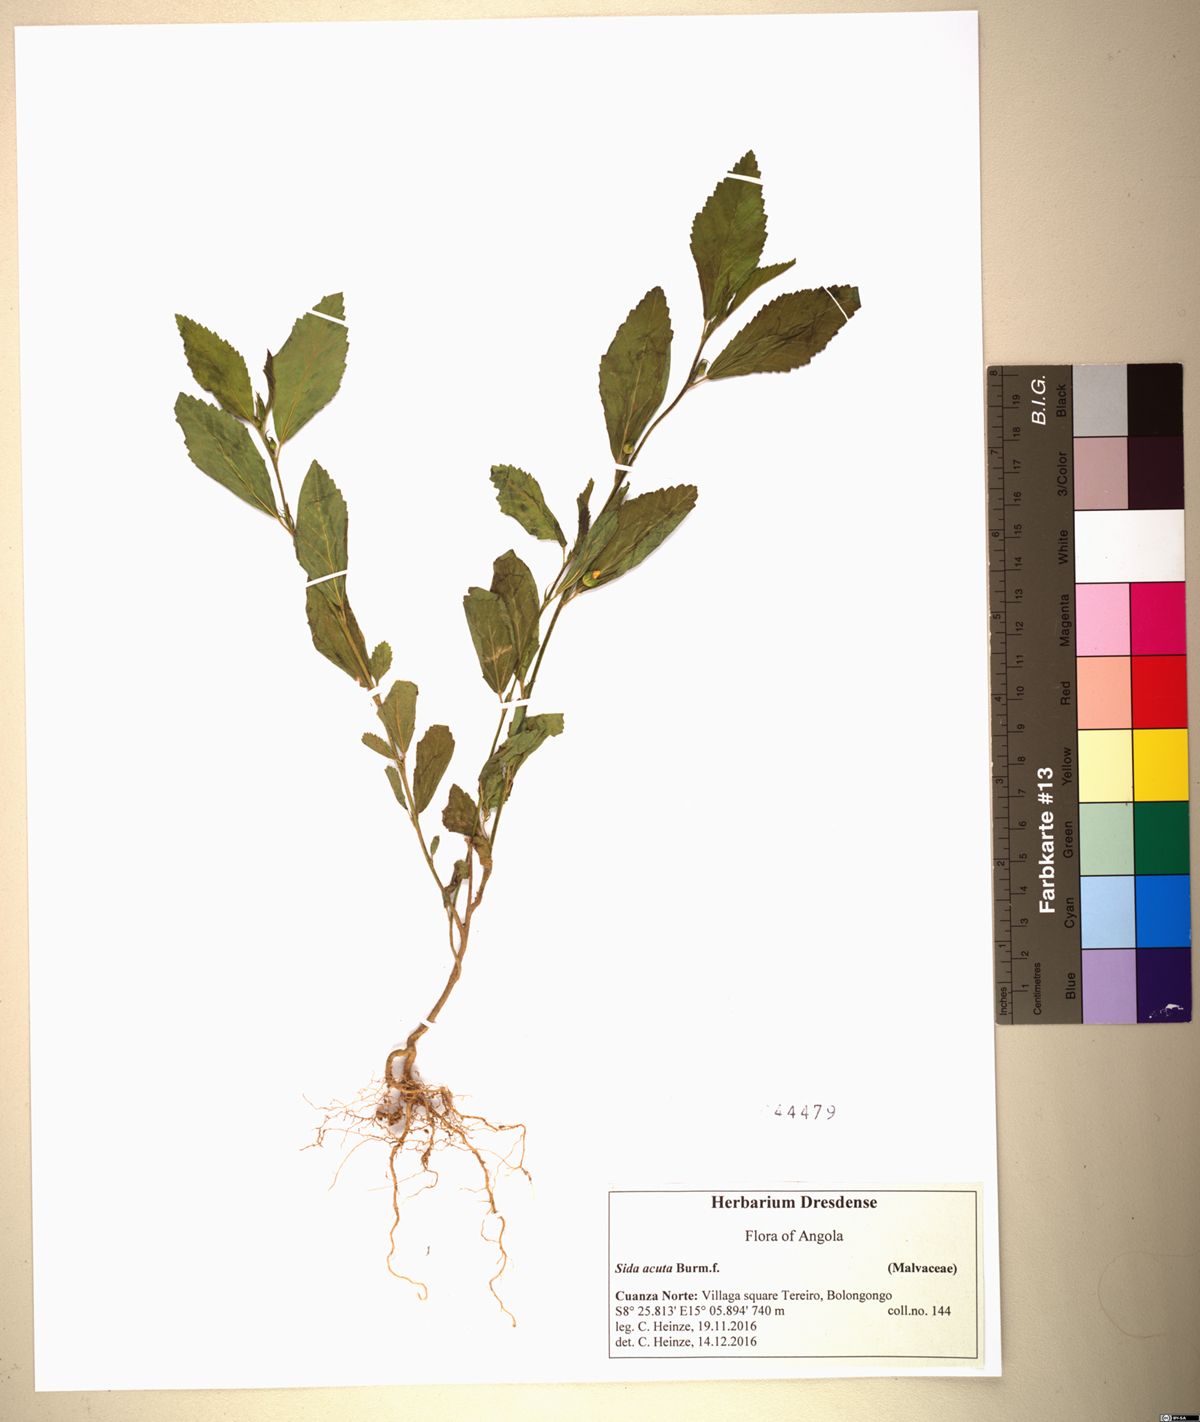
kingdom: Plantae
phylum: Tracheophyta
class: Magnoliopsida
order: Malvales
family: Malvaceae
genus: Sida
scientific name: Sida acuta
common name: Common wireweed
